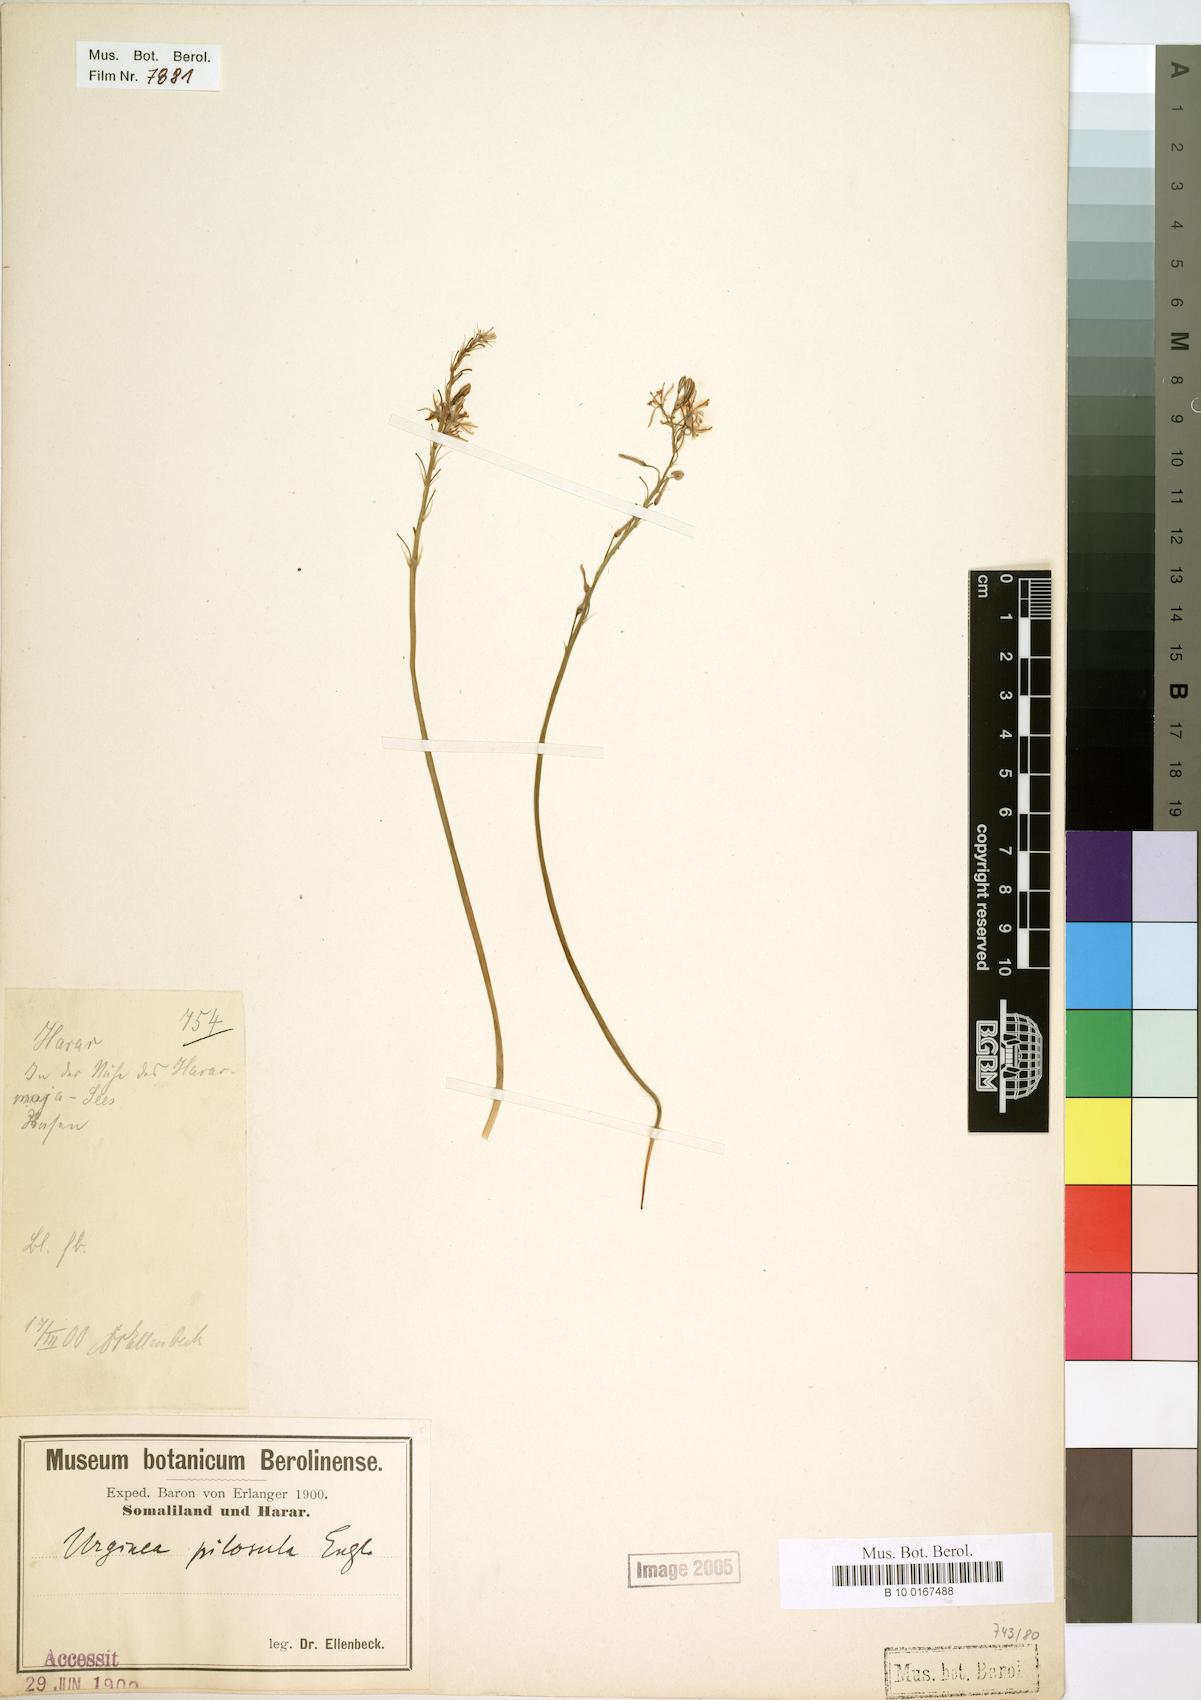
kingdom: Plantae
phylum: Tracheophyta
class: Liliopsida
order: Asparagales
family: Asphodelaceae
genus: Trachyandra
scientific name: Trachyandra saltii
